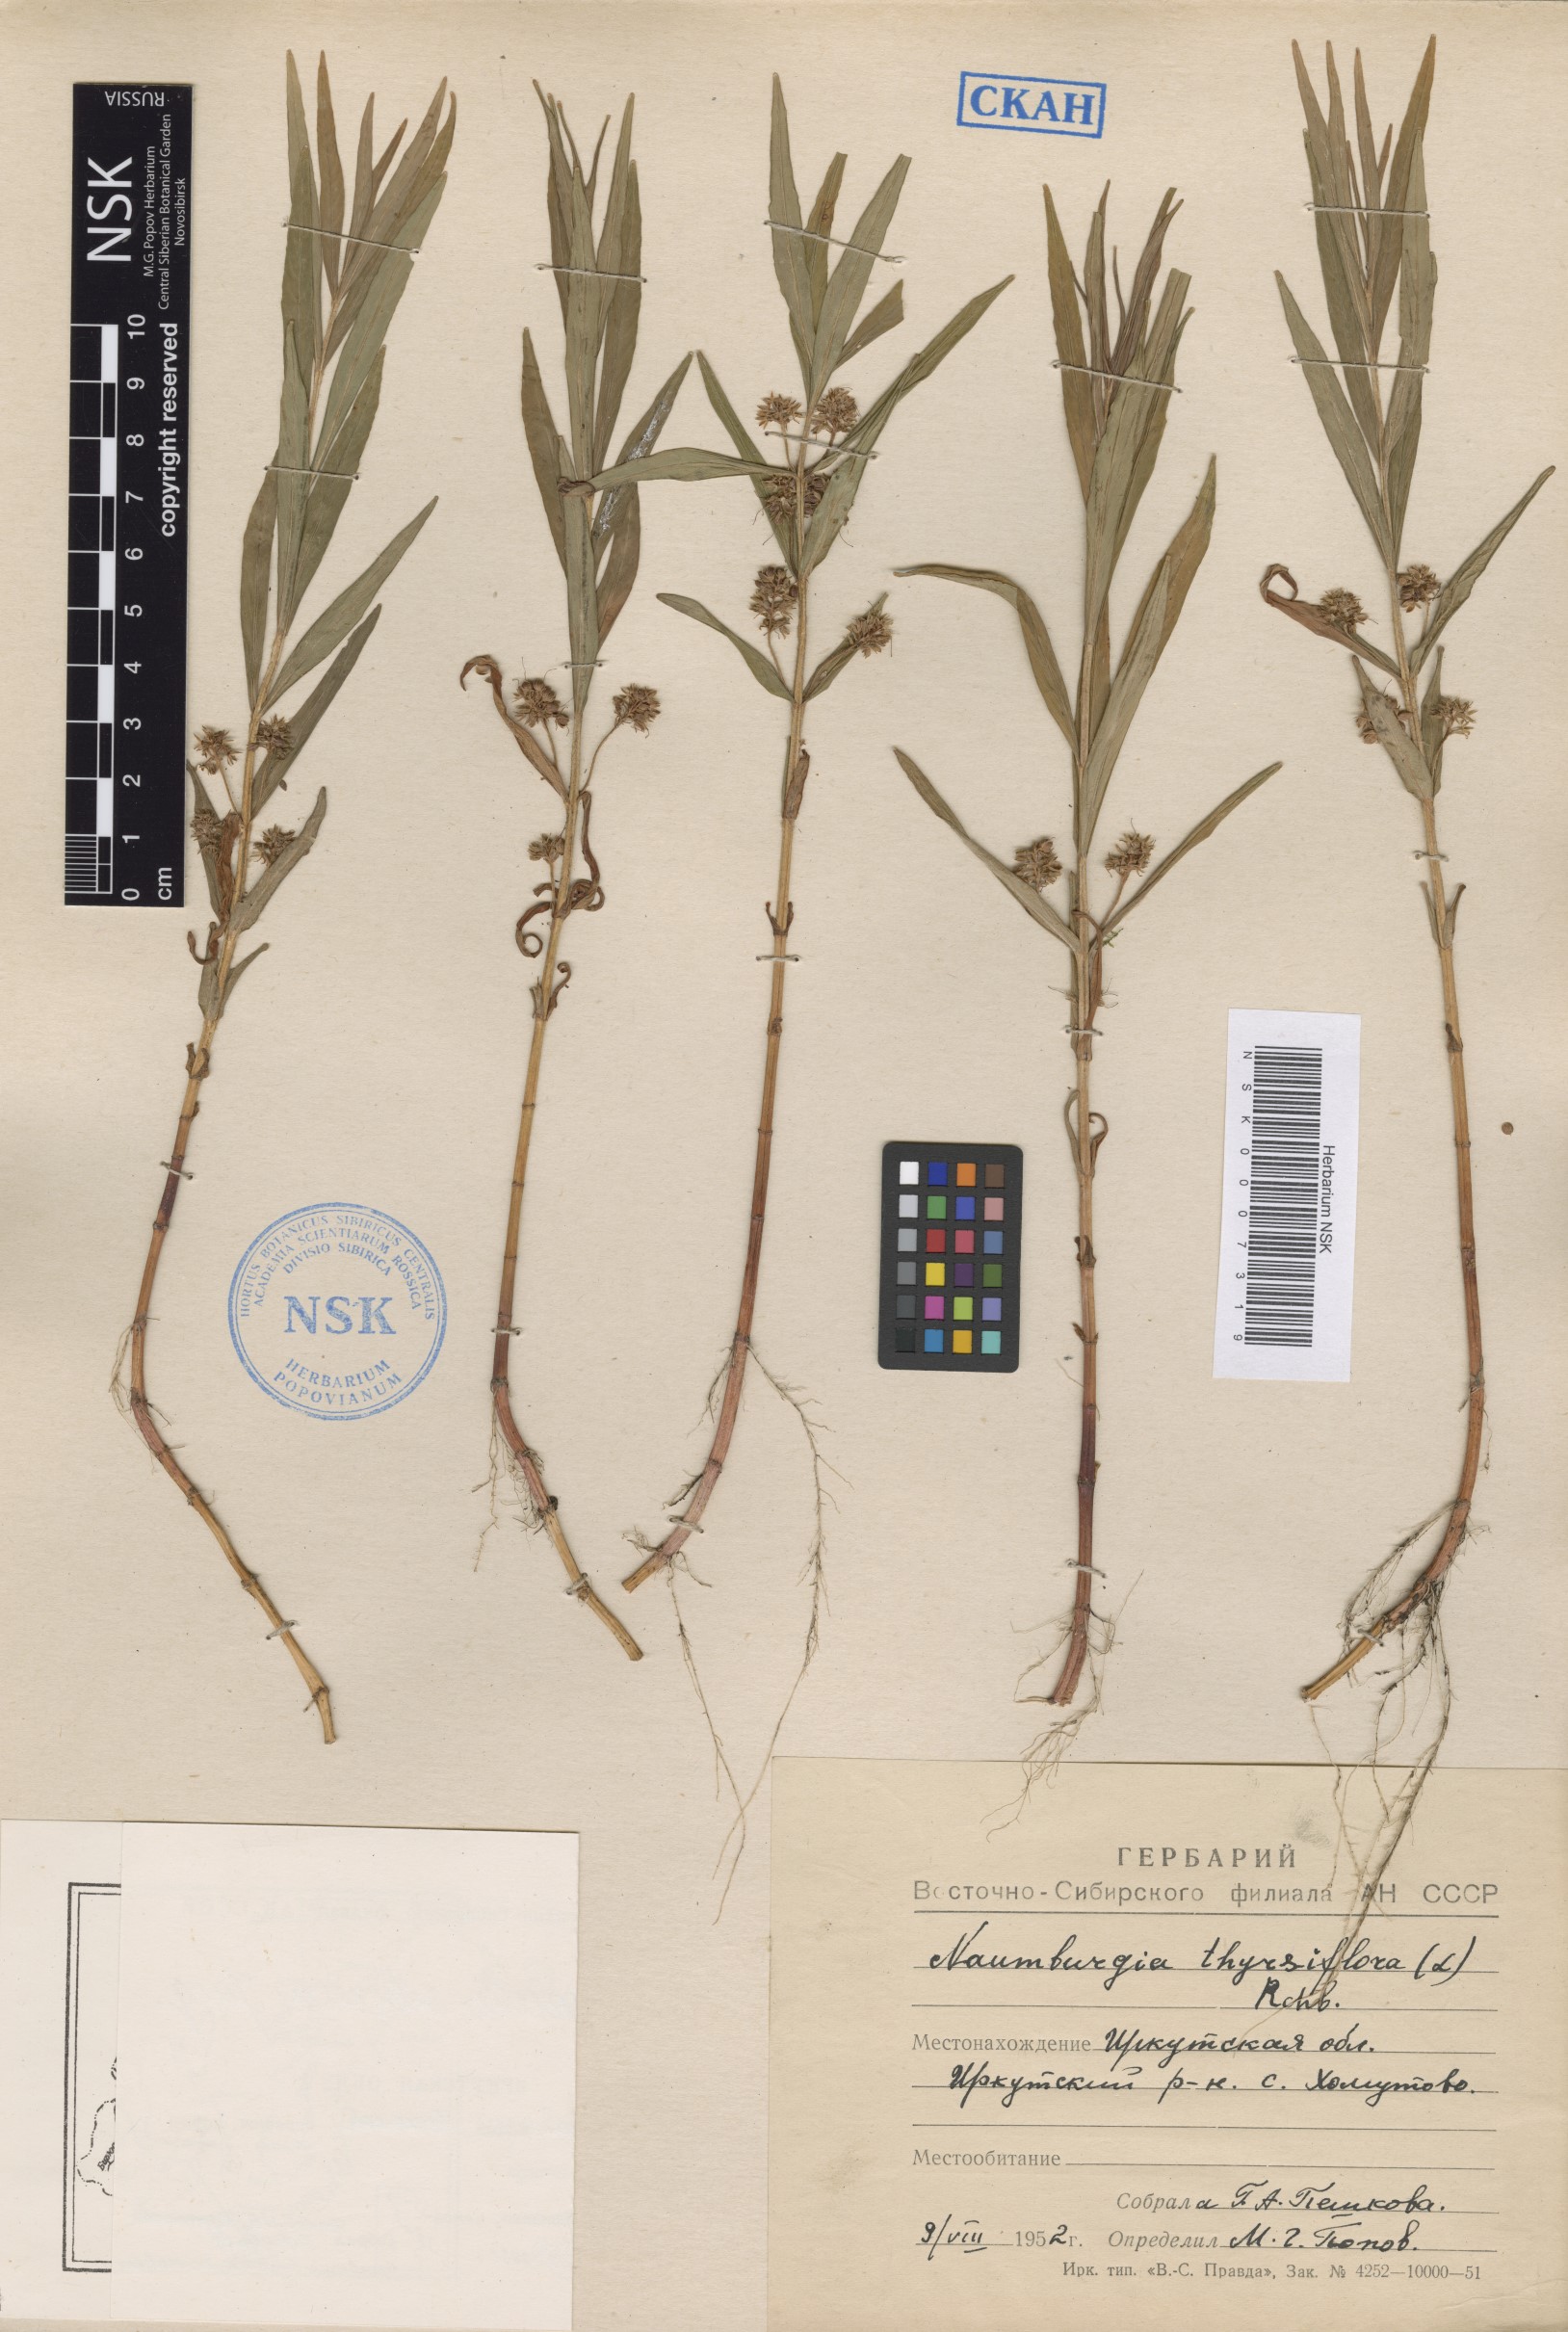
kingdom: Plantae
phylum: Tracheophyta
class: Magnoliopsida
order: Ericales
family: Primulaceae
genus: Lysimachia
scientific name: Lysimachia thyrsiflora
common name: Tufted loosestrife
